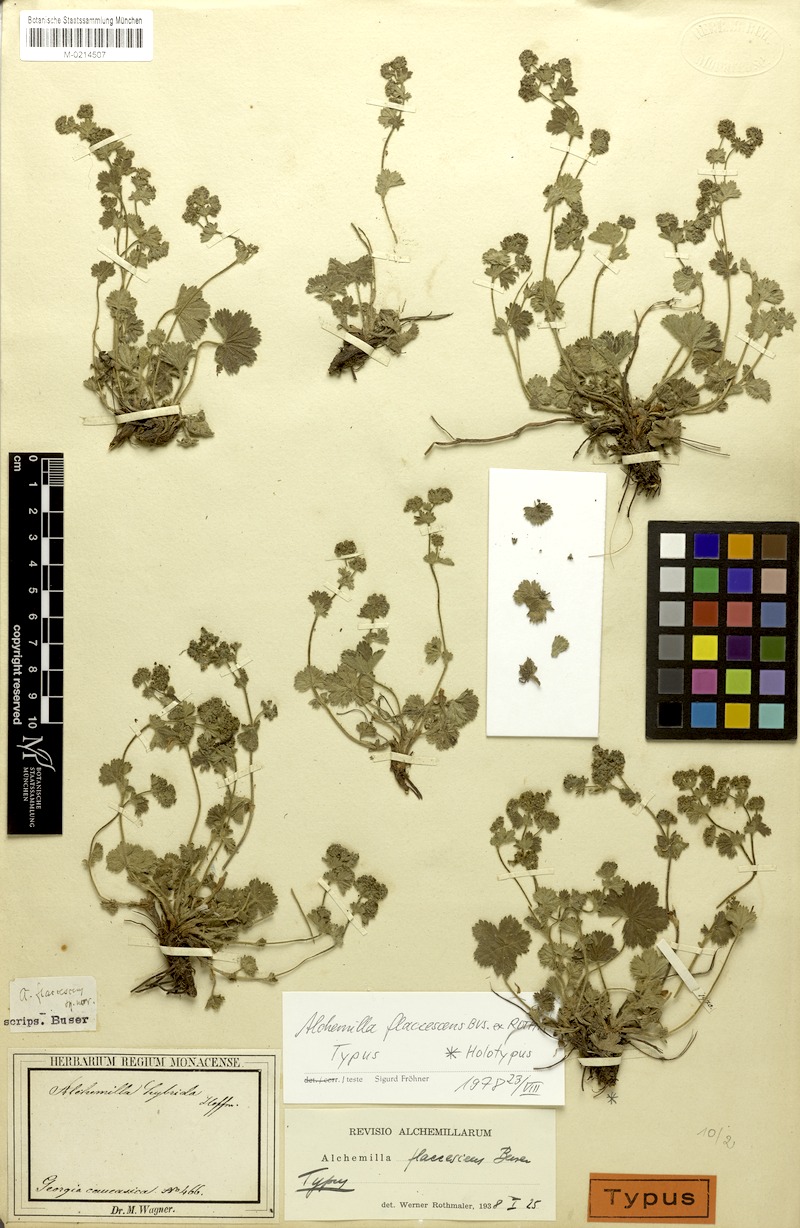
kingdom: Plantae
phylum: Tracheophyta
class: Magnoliopsida
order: Rosales
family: Rosaceae
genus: Alchemilla
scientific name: Alchemilla flavescens
